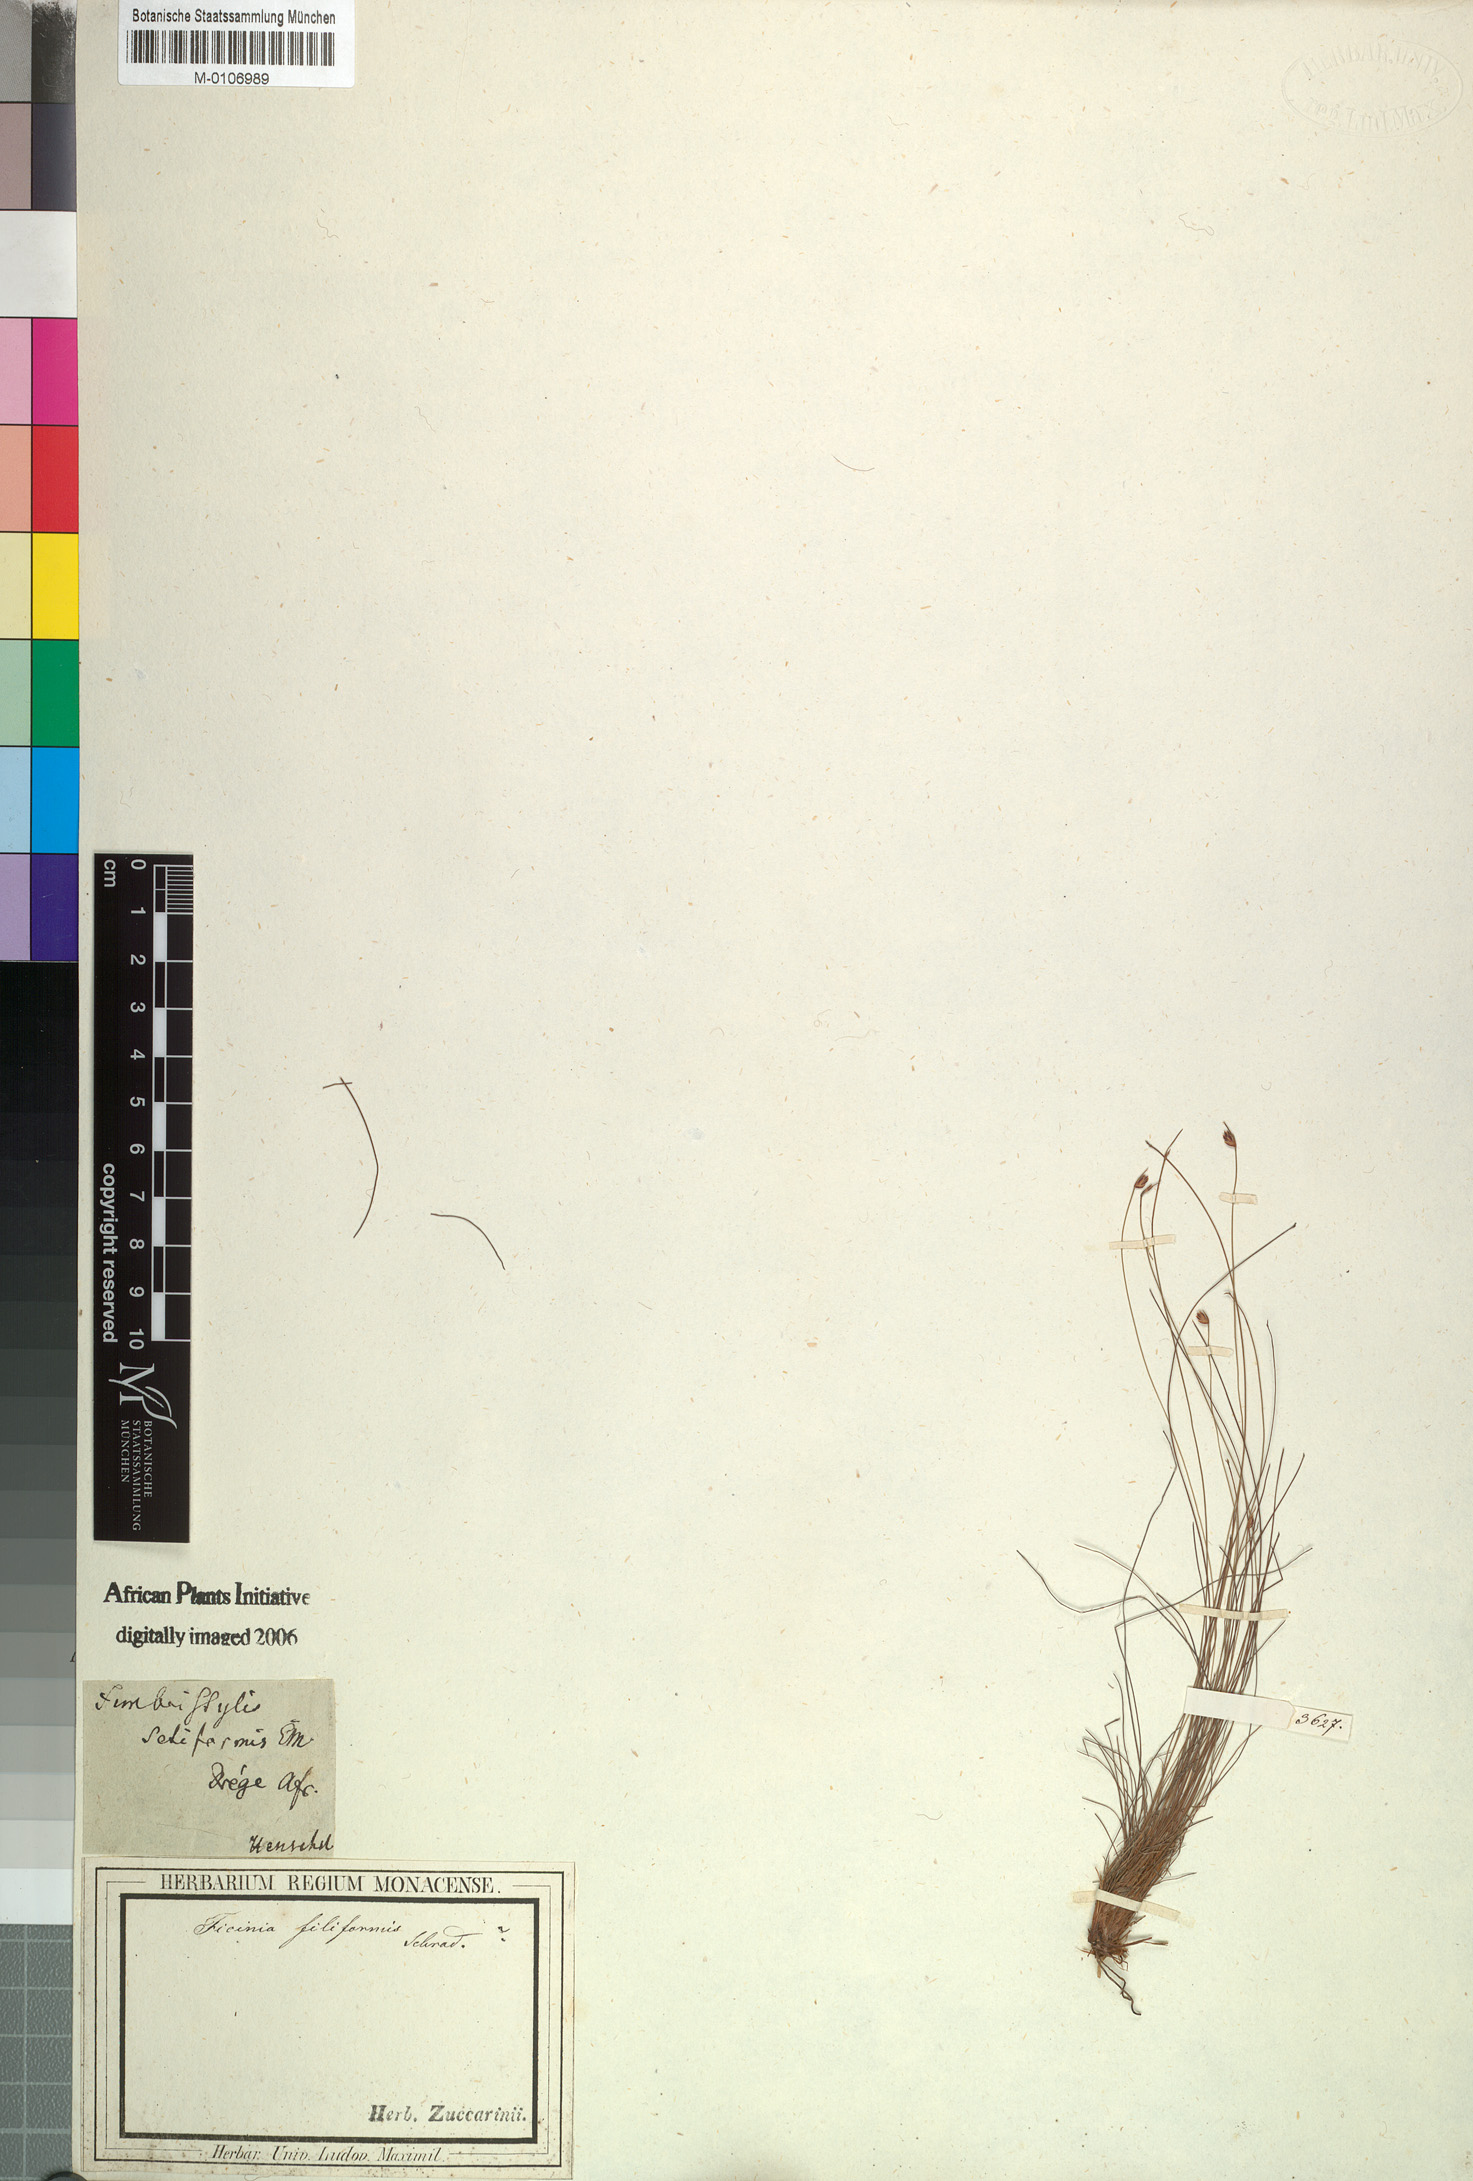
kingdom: Plantae
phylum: Tracheophyta
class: Liliopsida
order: Poales
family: Cyperaceae
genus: Ficinia
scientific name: Ficinia filiformis
